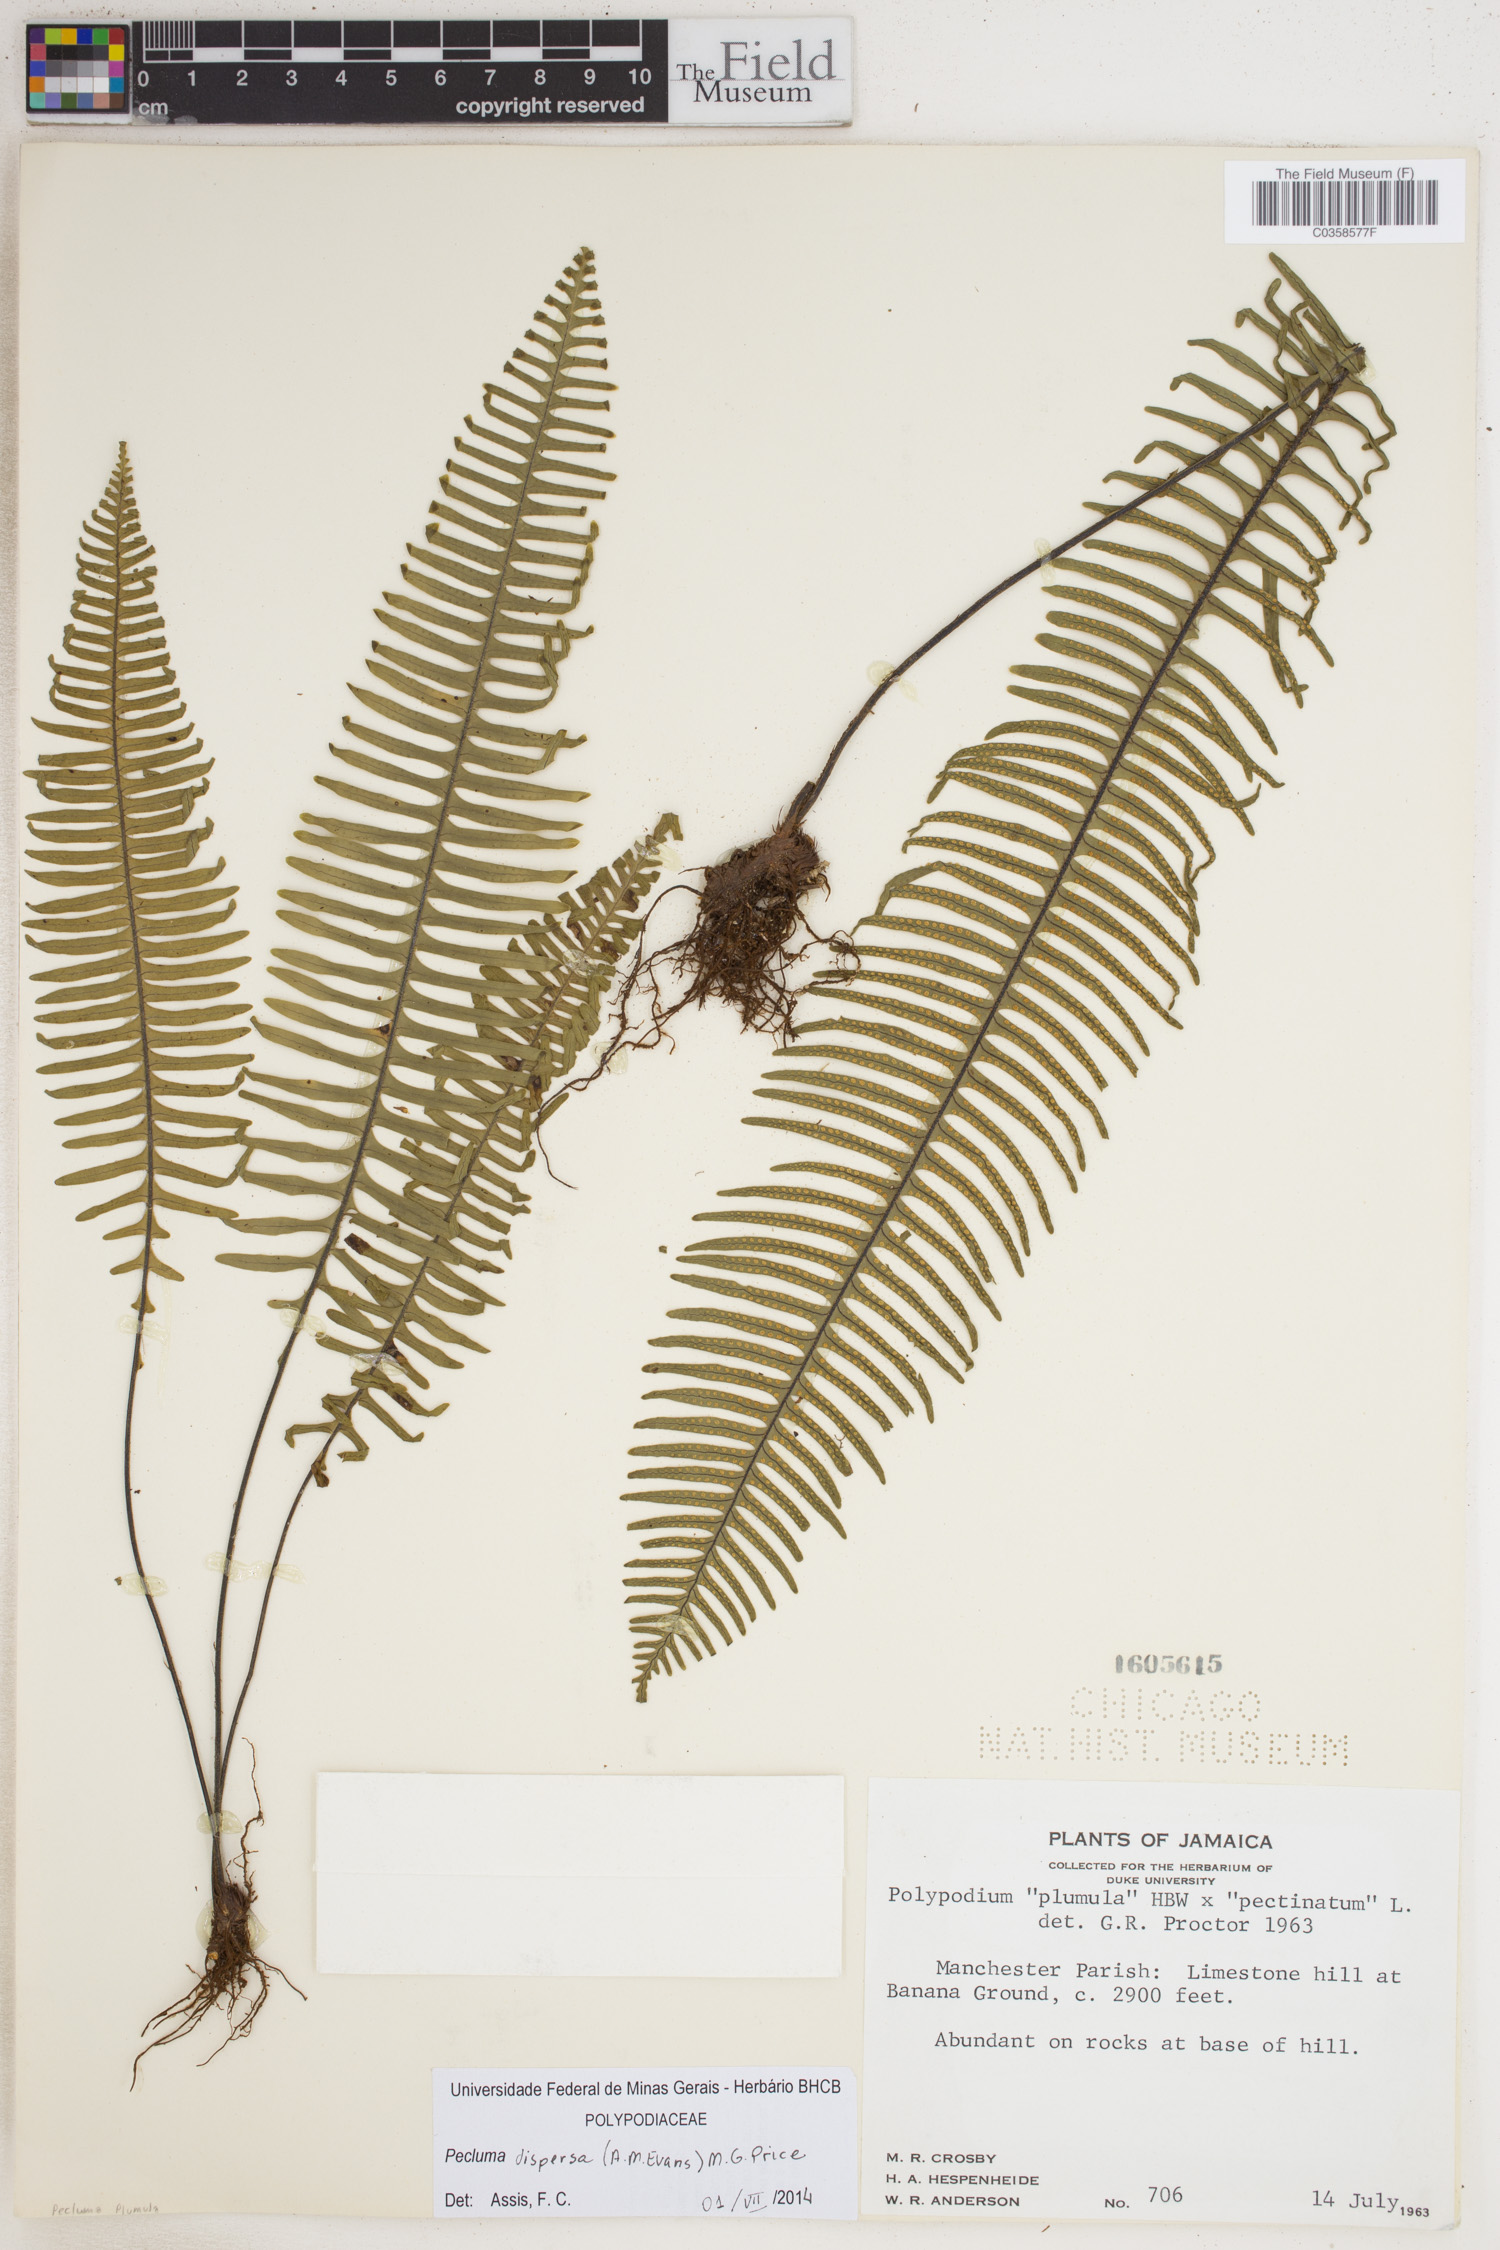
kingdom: Plantae
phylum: Tracheophyta
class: Polypodiopsida
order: Polypodiales
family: Polypodiaceae
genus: Pecluma
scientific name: Pecluma dispersa
